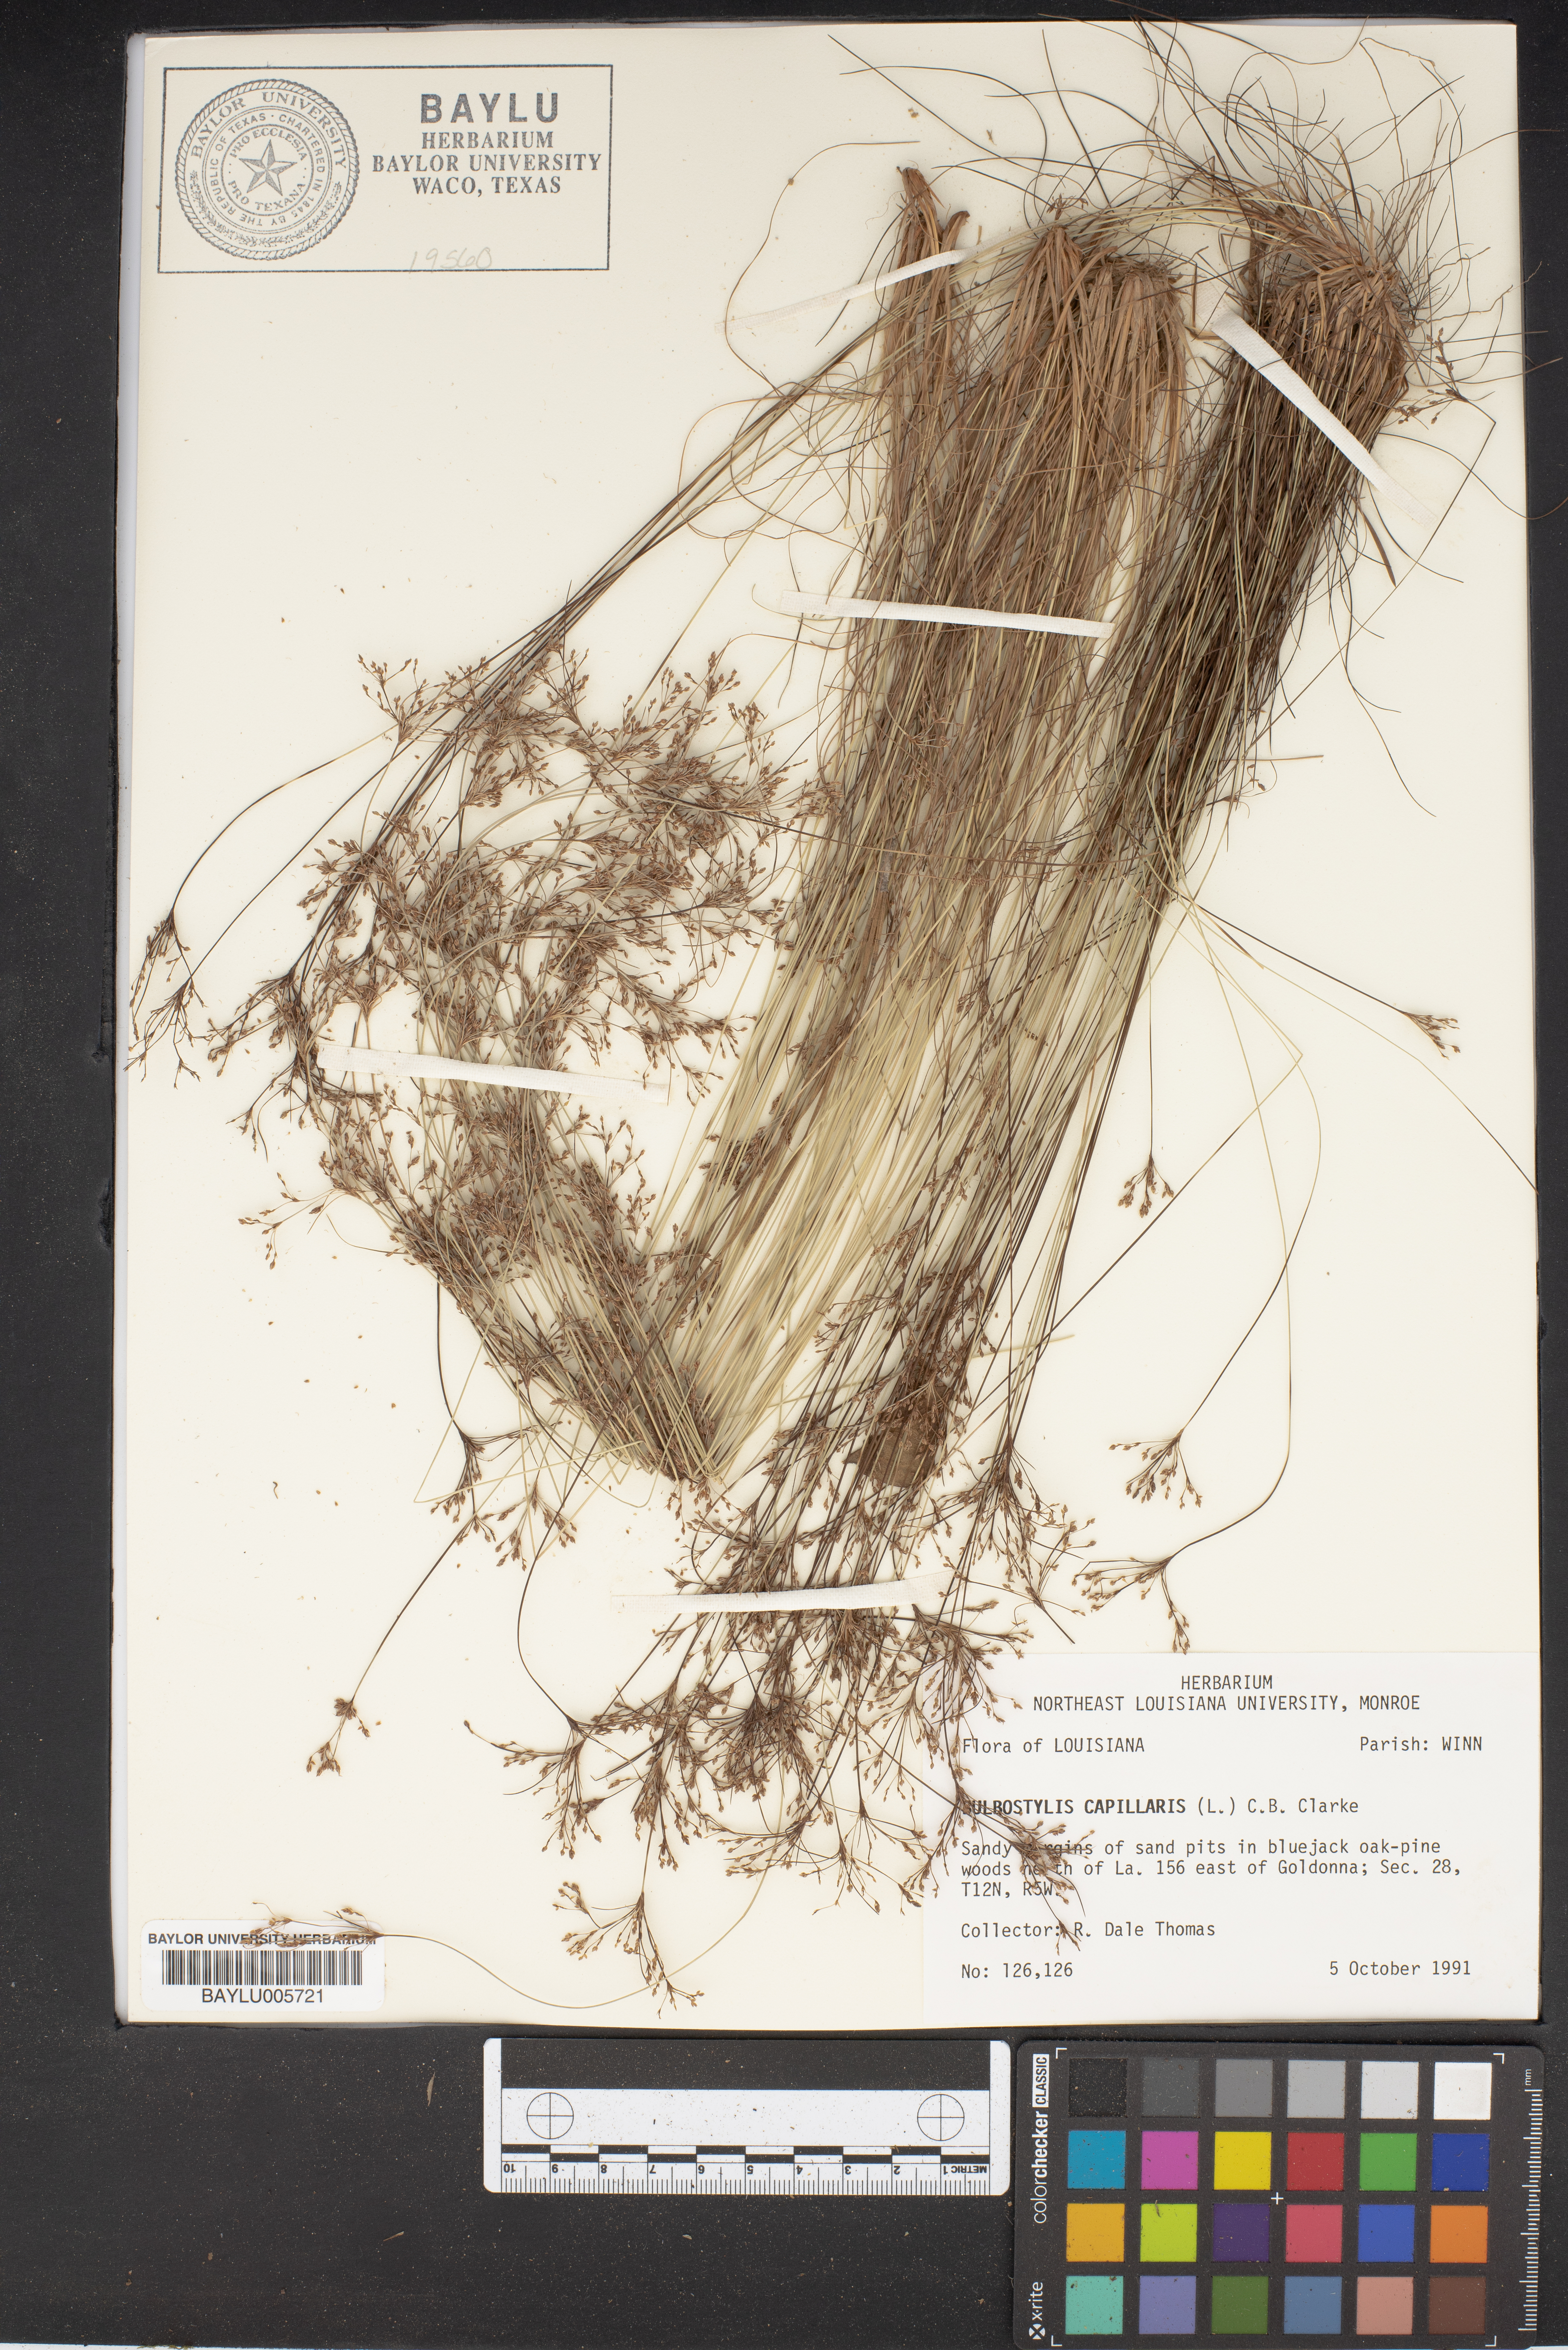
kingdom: Plantae
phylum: Tracheophyta
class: Liliopsida
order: Poales
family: Cyperaceae
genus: Bulbostylis
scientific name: Bulbostylis capillaris
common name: Densetuft hairsedge
